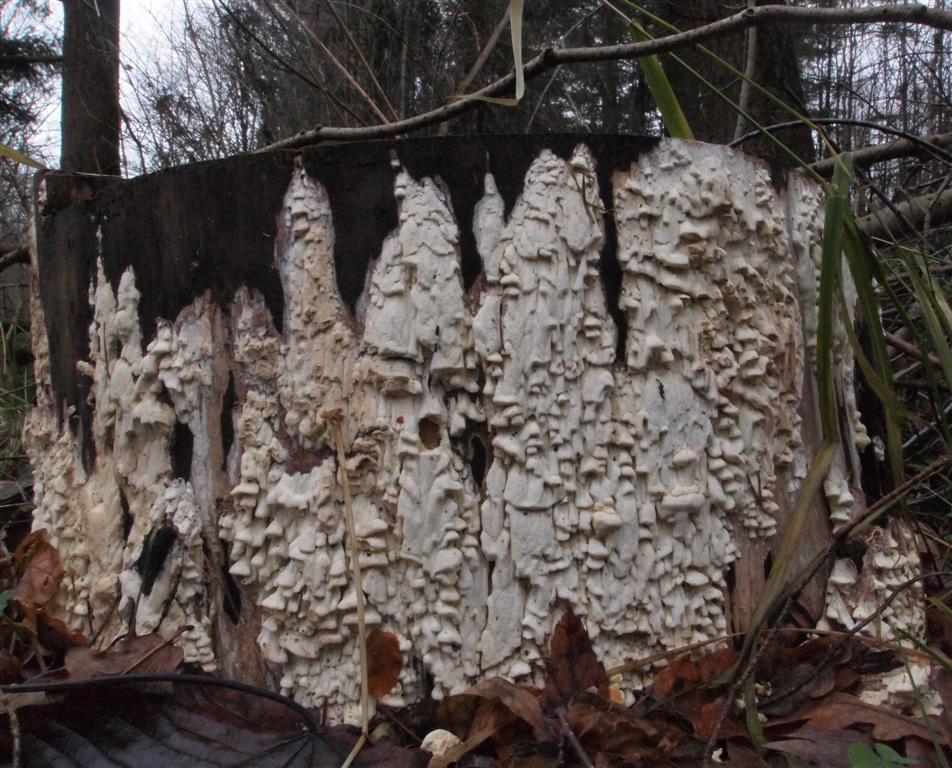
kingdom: Fungi
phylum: Basidiomycota
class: Agaricomycetes
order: Polyporales
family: Fomitopsidaceae
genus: Daedalea
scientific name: Daedalea xantha
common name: gul sejporesvamp
